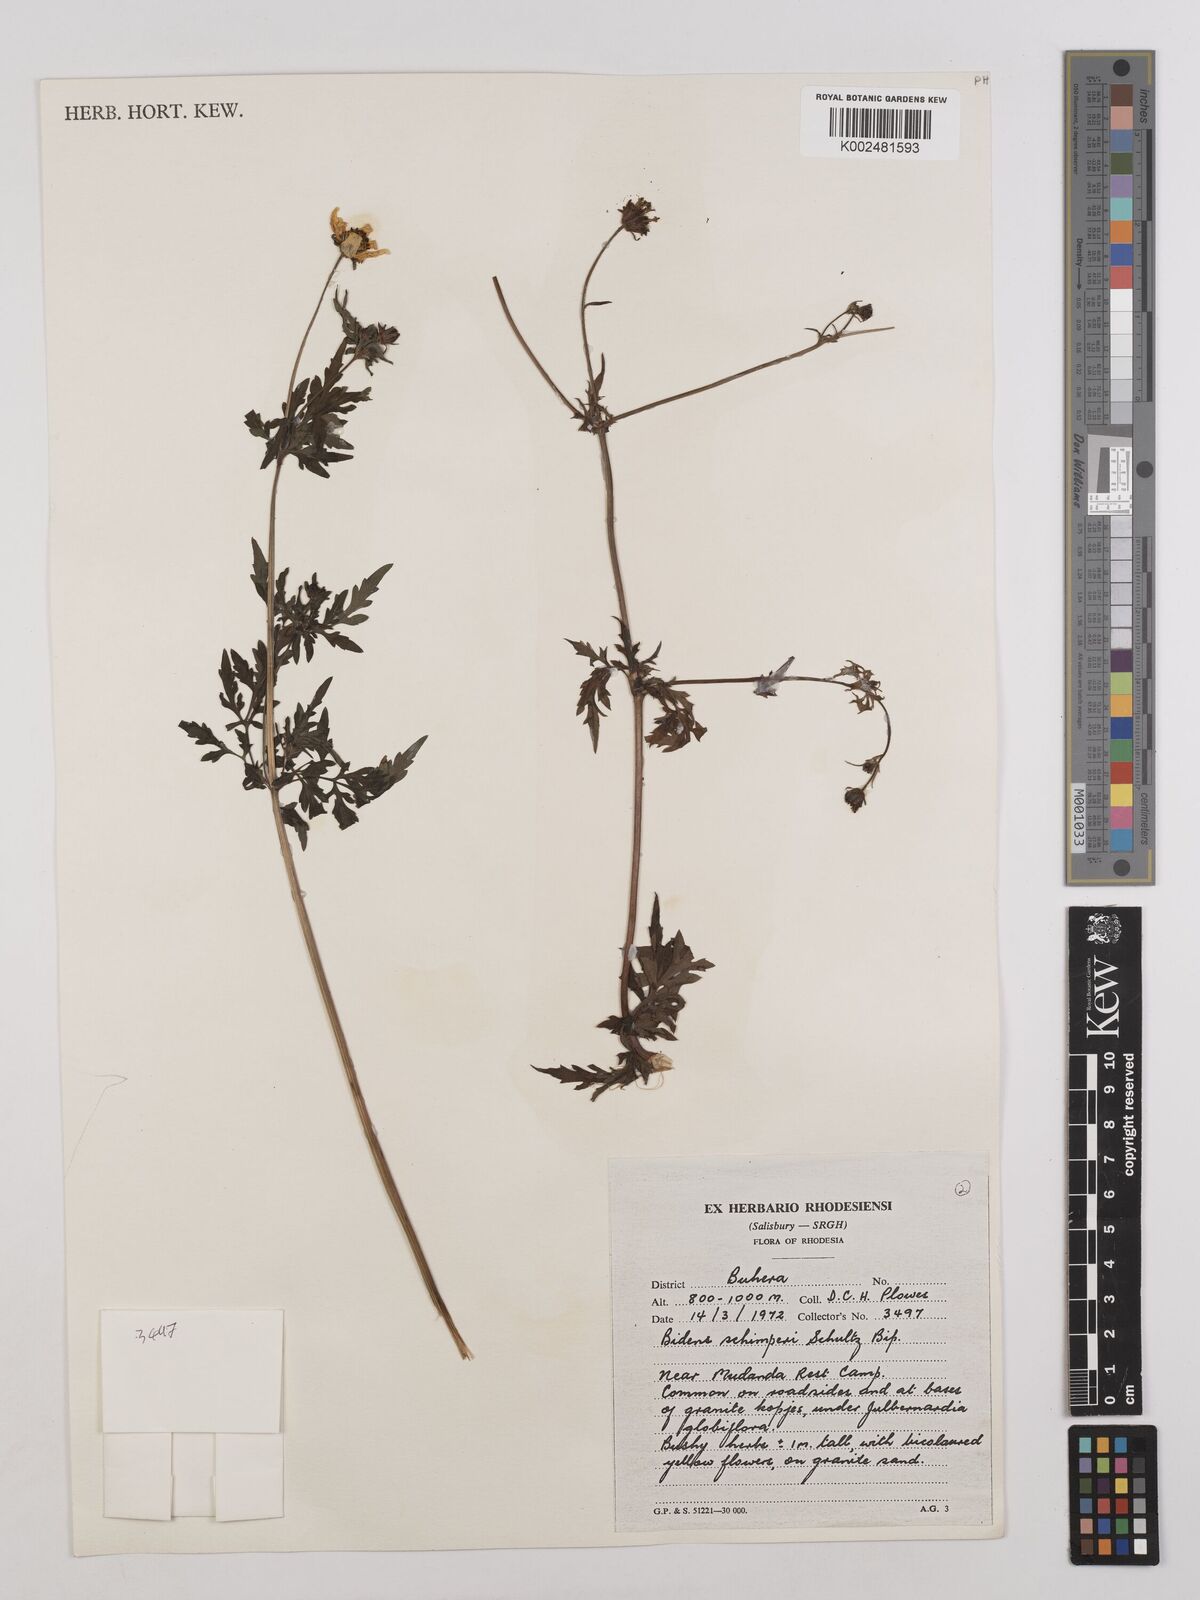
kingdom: Plantae
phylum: Tracheophyta
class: Magnoliopsida
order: Asterales
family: Asteraceae
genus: Bidens
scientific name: Bidens schimperi
